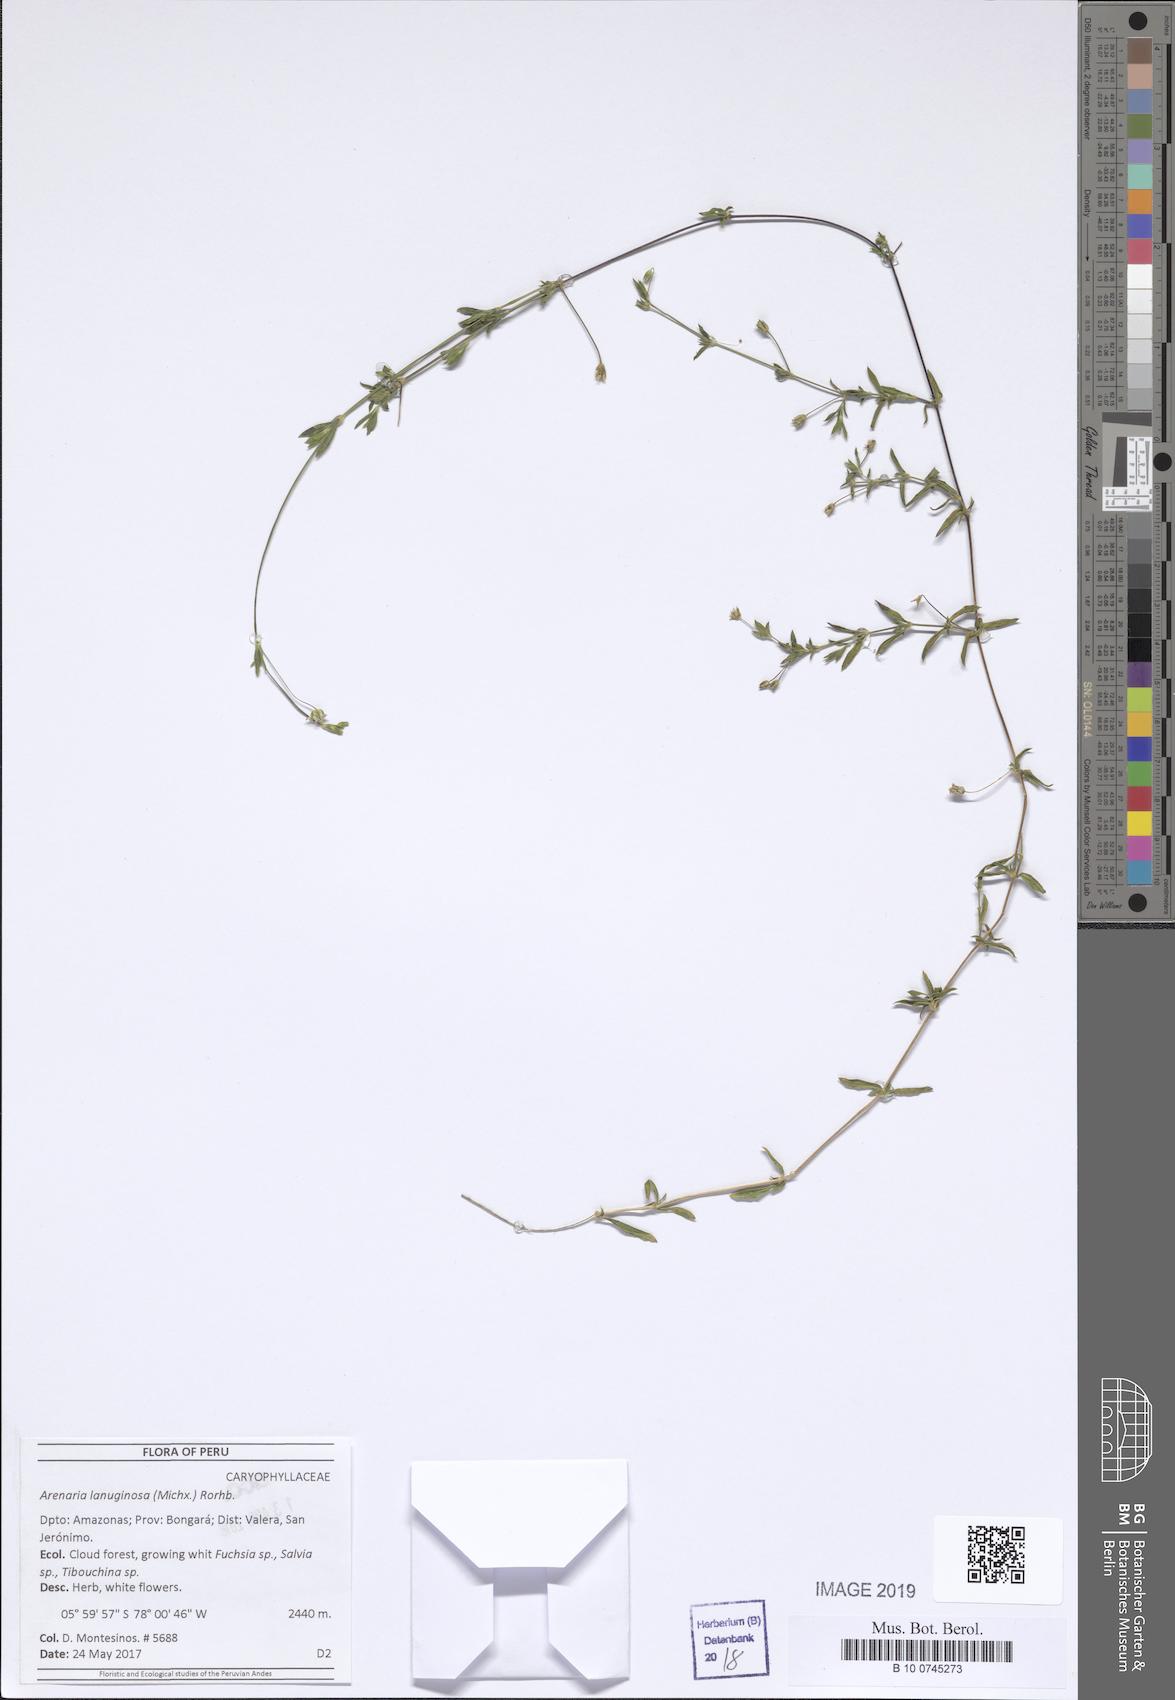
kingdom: Plantae
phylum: Tracheophyta
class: Magnoliopsida
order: Caryophyllales
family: Caryophyllaceae
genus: Arenaria
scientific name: Arenaria lanuginosa
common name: Spread sandwort
